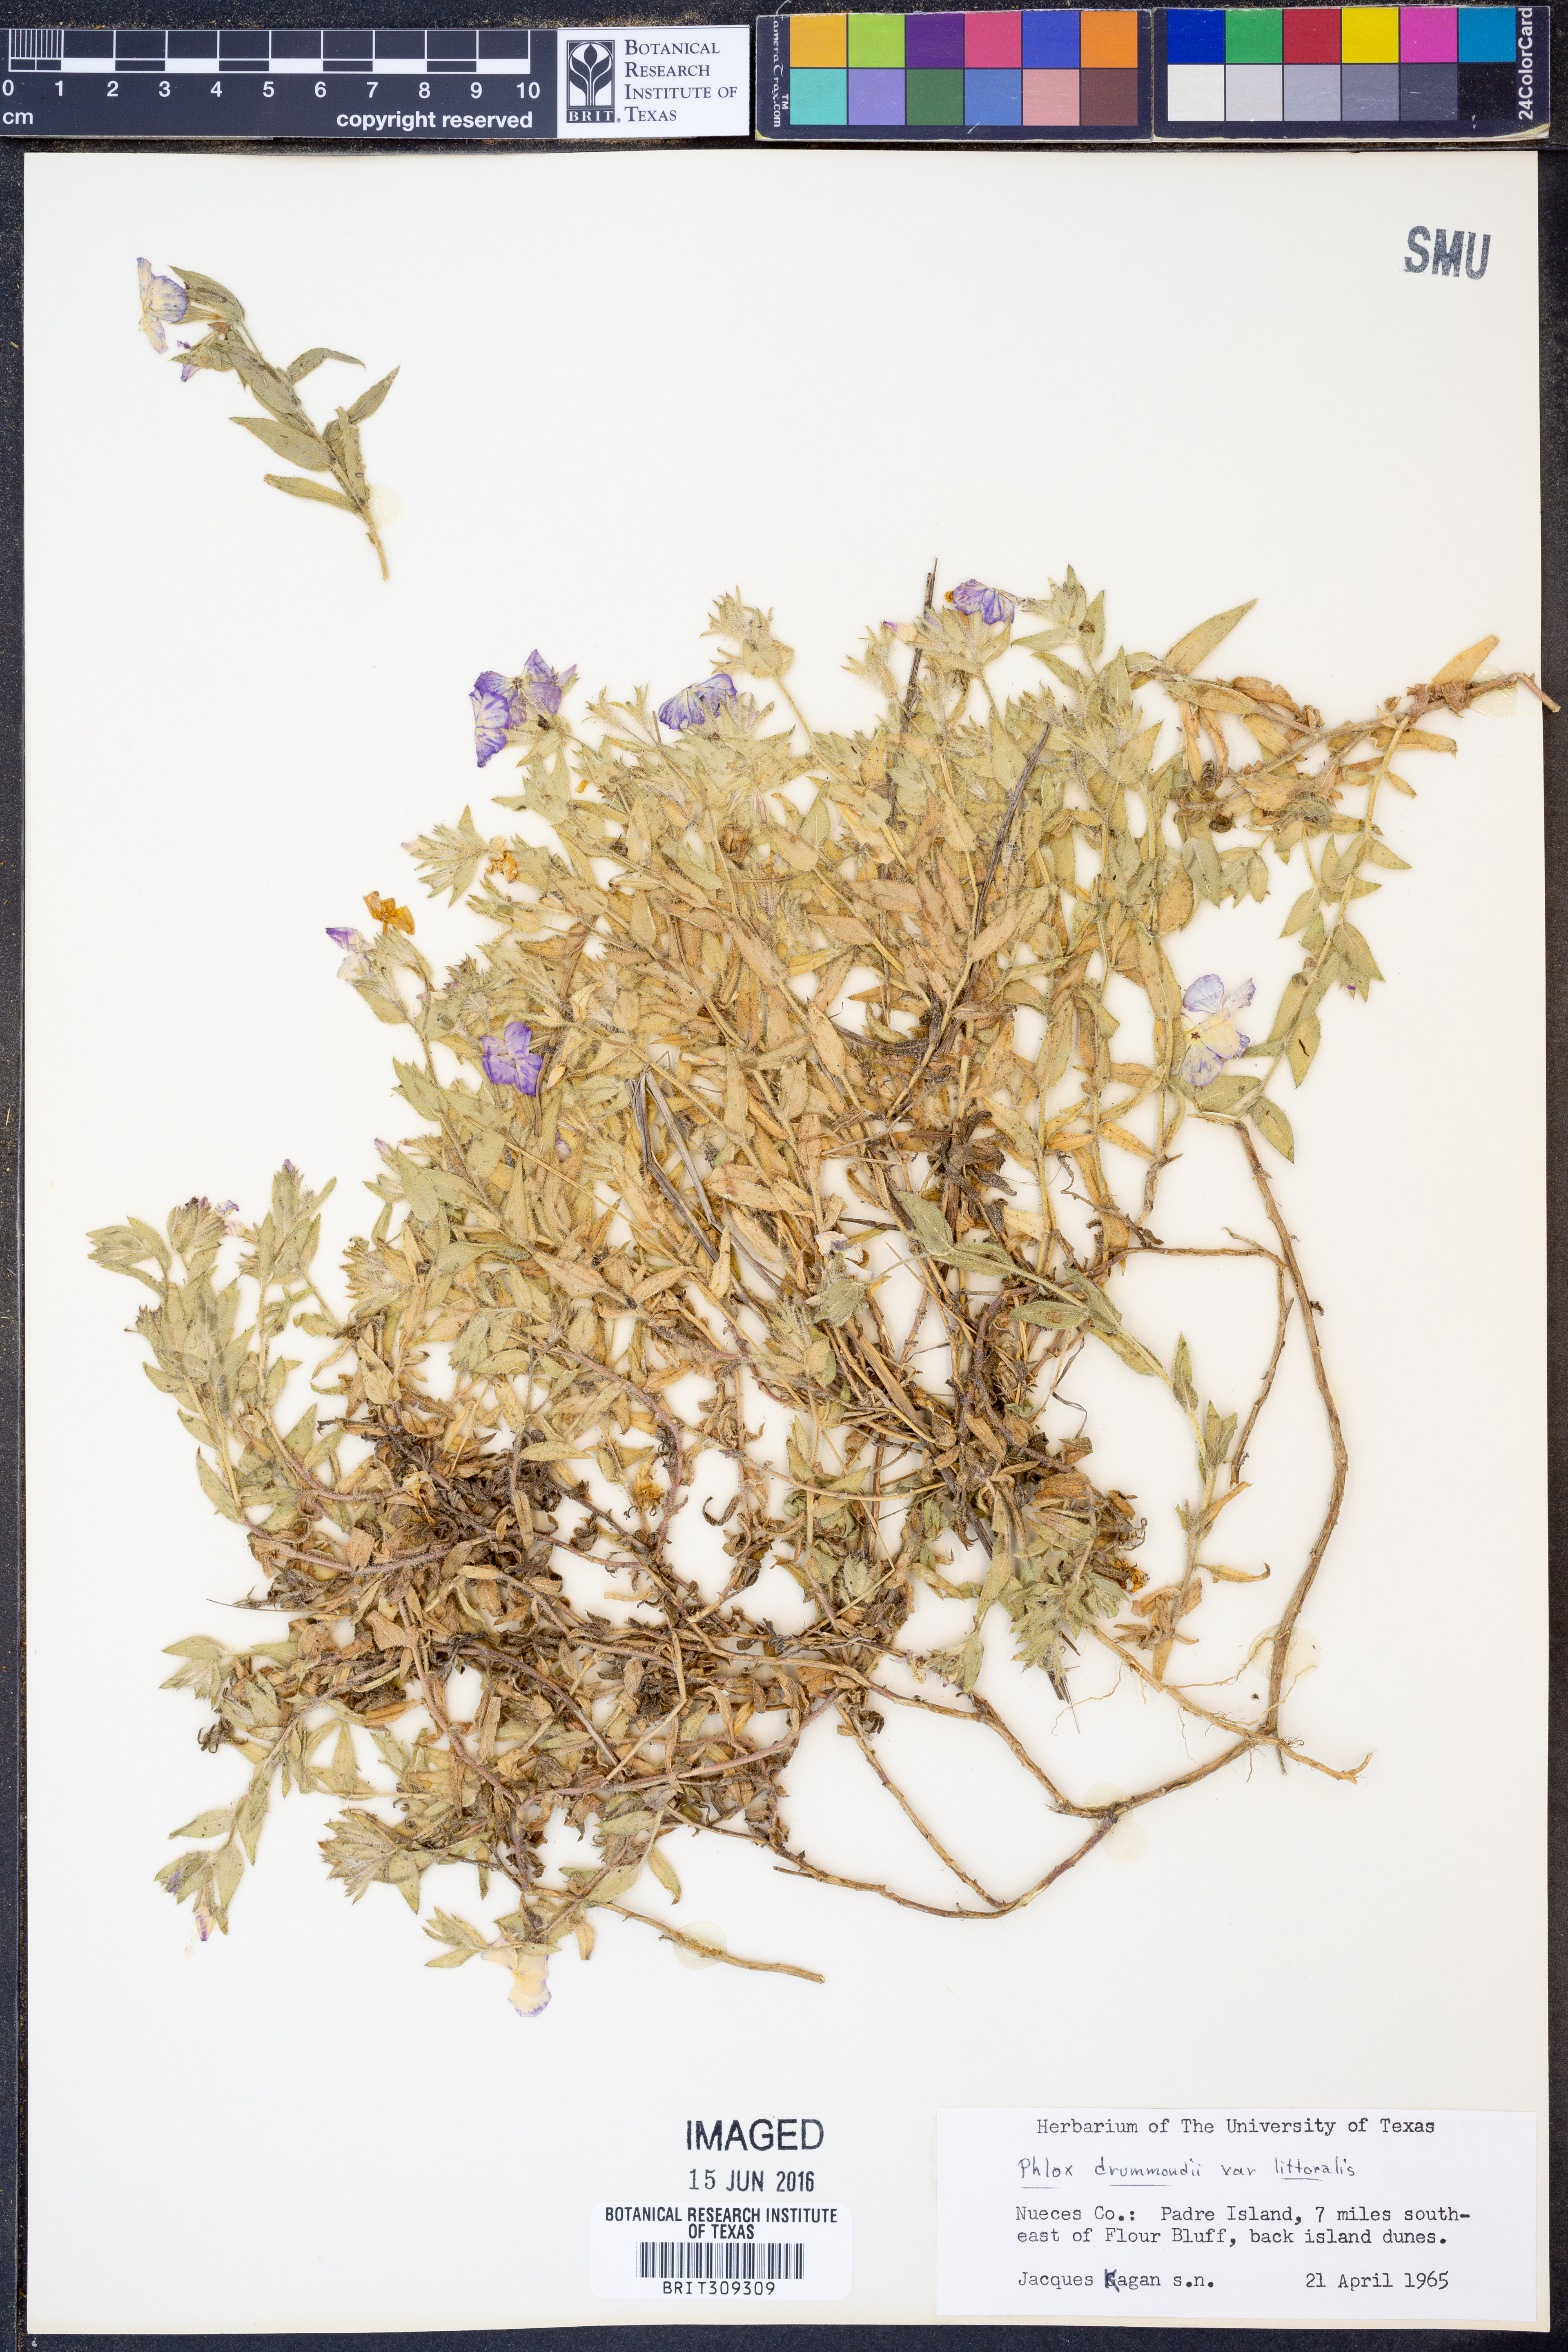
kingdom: Plantae
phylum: Tracheophyta
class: Magnoliopsida
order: Ericales
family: Polemoniaceae
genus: Phlox
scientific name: Phlox glabriflora
